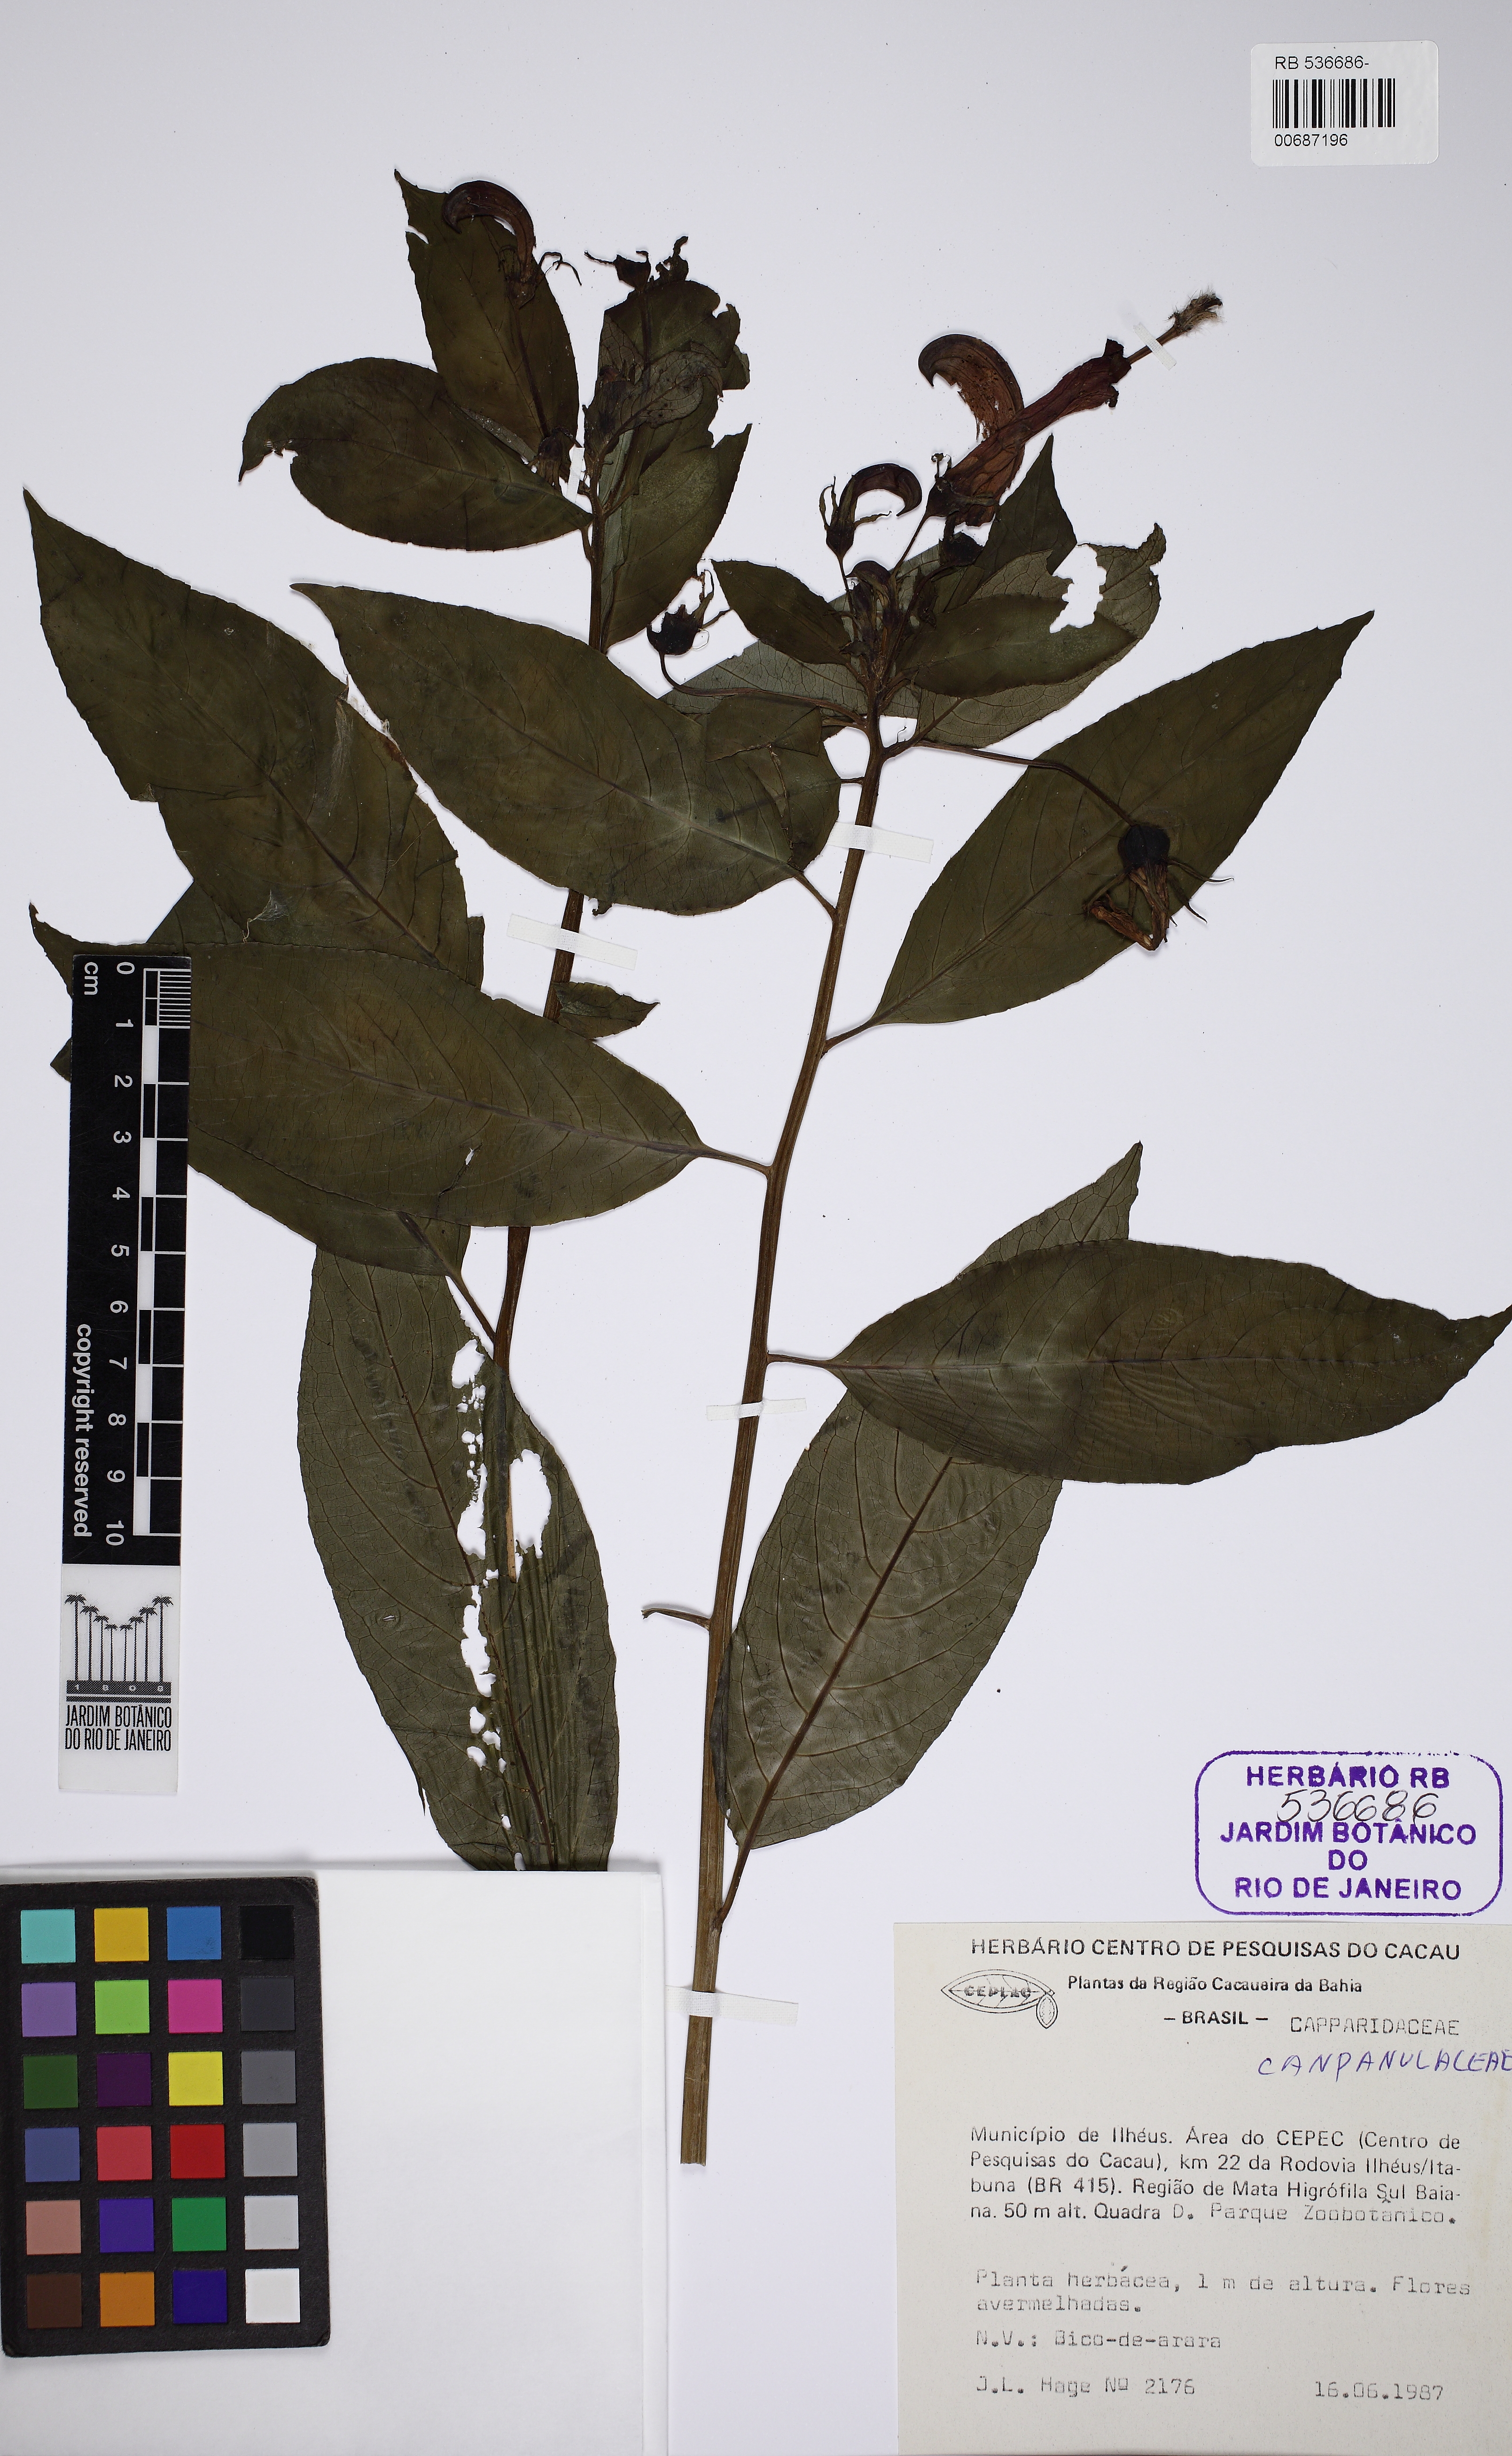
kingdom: Plantae
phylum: Tracheophyta
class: Magnoliopsida
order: Asterales
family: Campanulaceae
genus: Centropogon
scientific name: Centropogon cornutus
